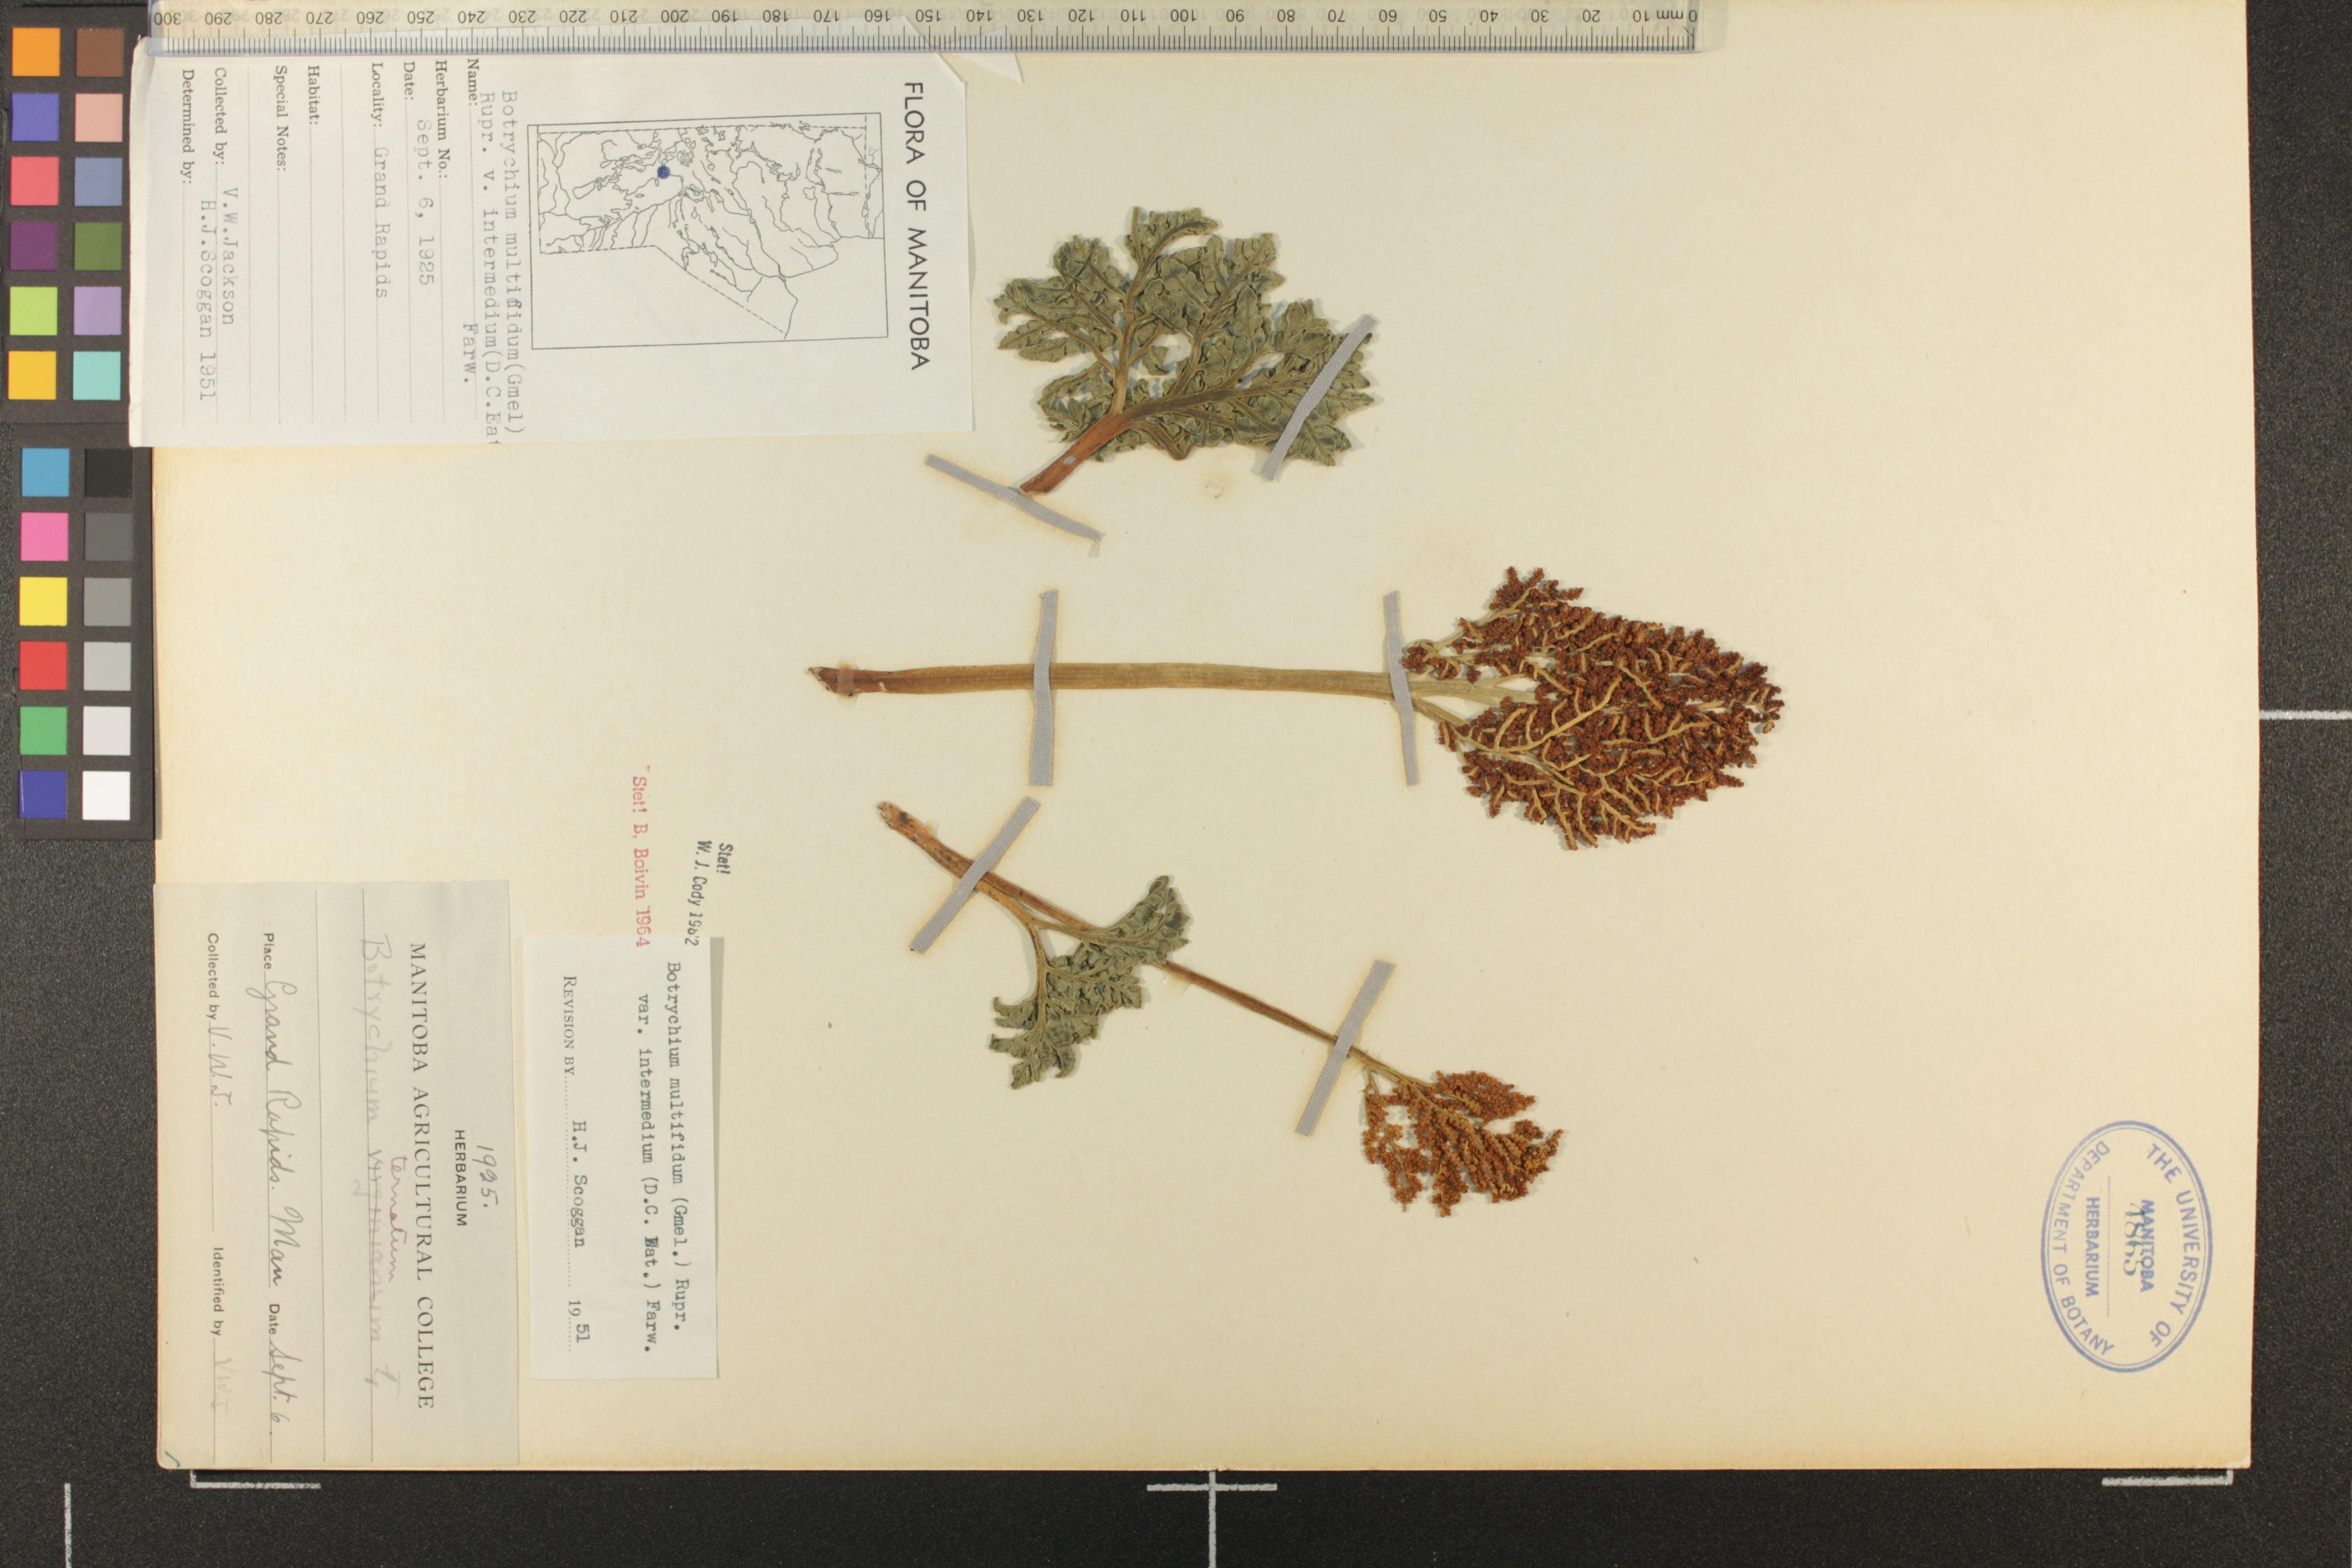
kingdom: Plantae
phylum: Tracheophyta
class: Polypodiopsida
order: Ophioglossales
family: Ophioglossaceae
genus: Sceptridium
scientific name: Sceptridium multifidum
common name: Leathery grape fern
